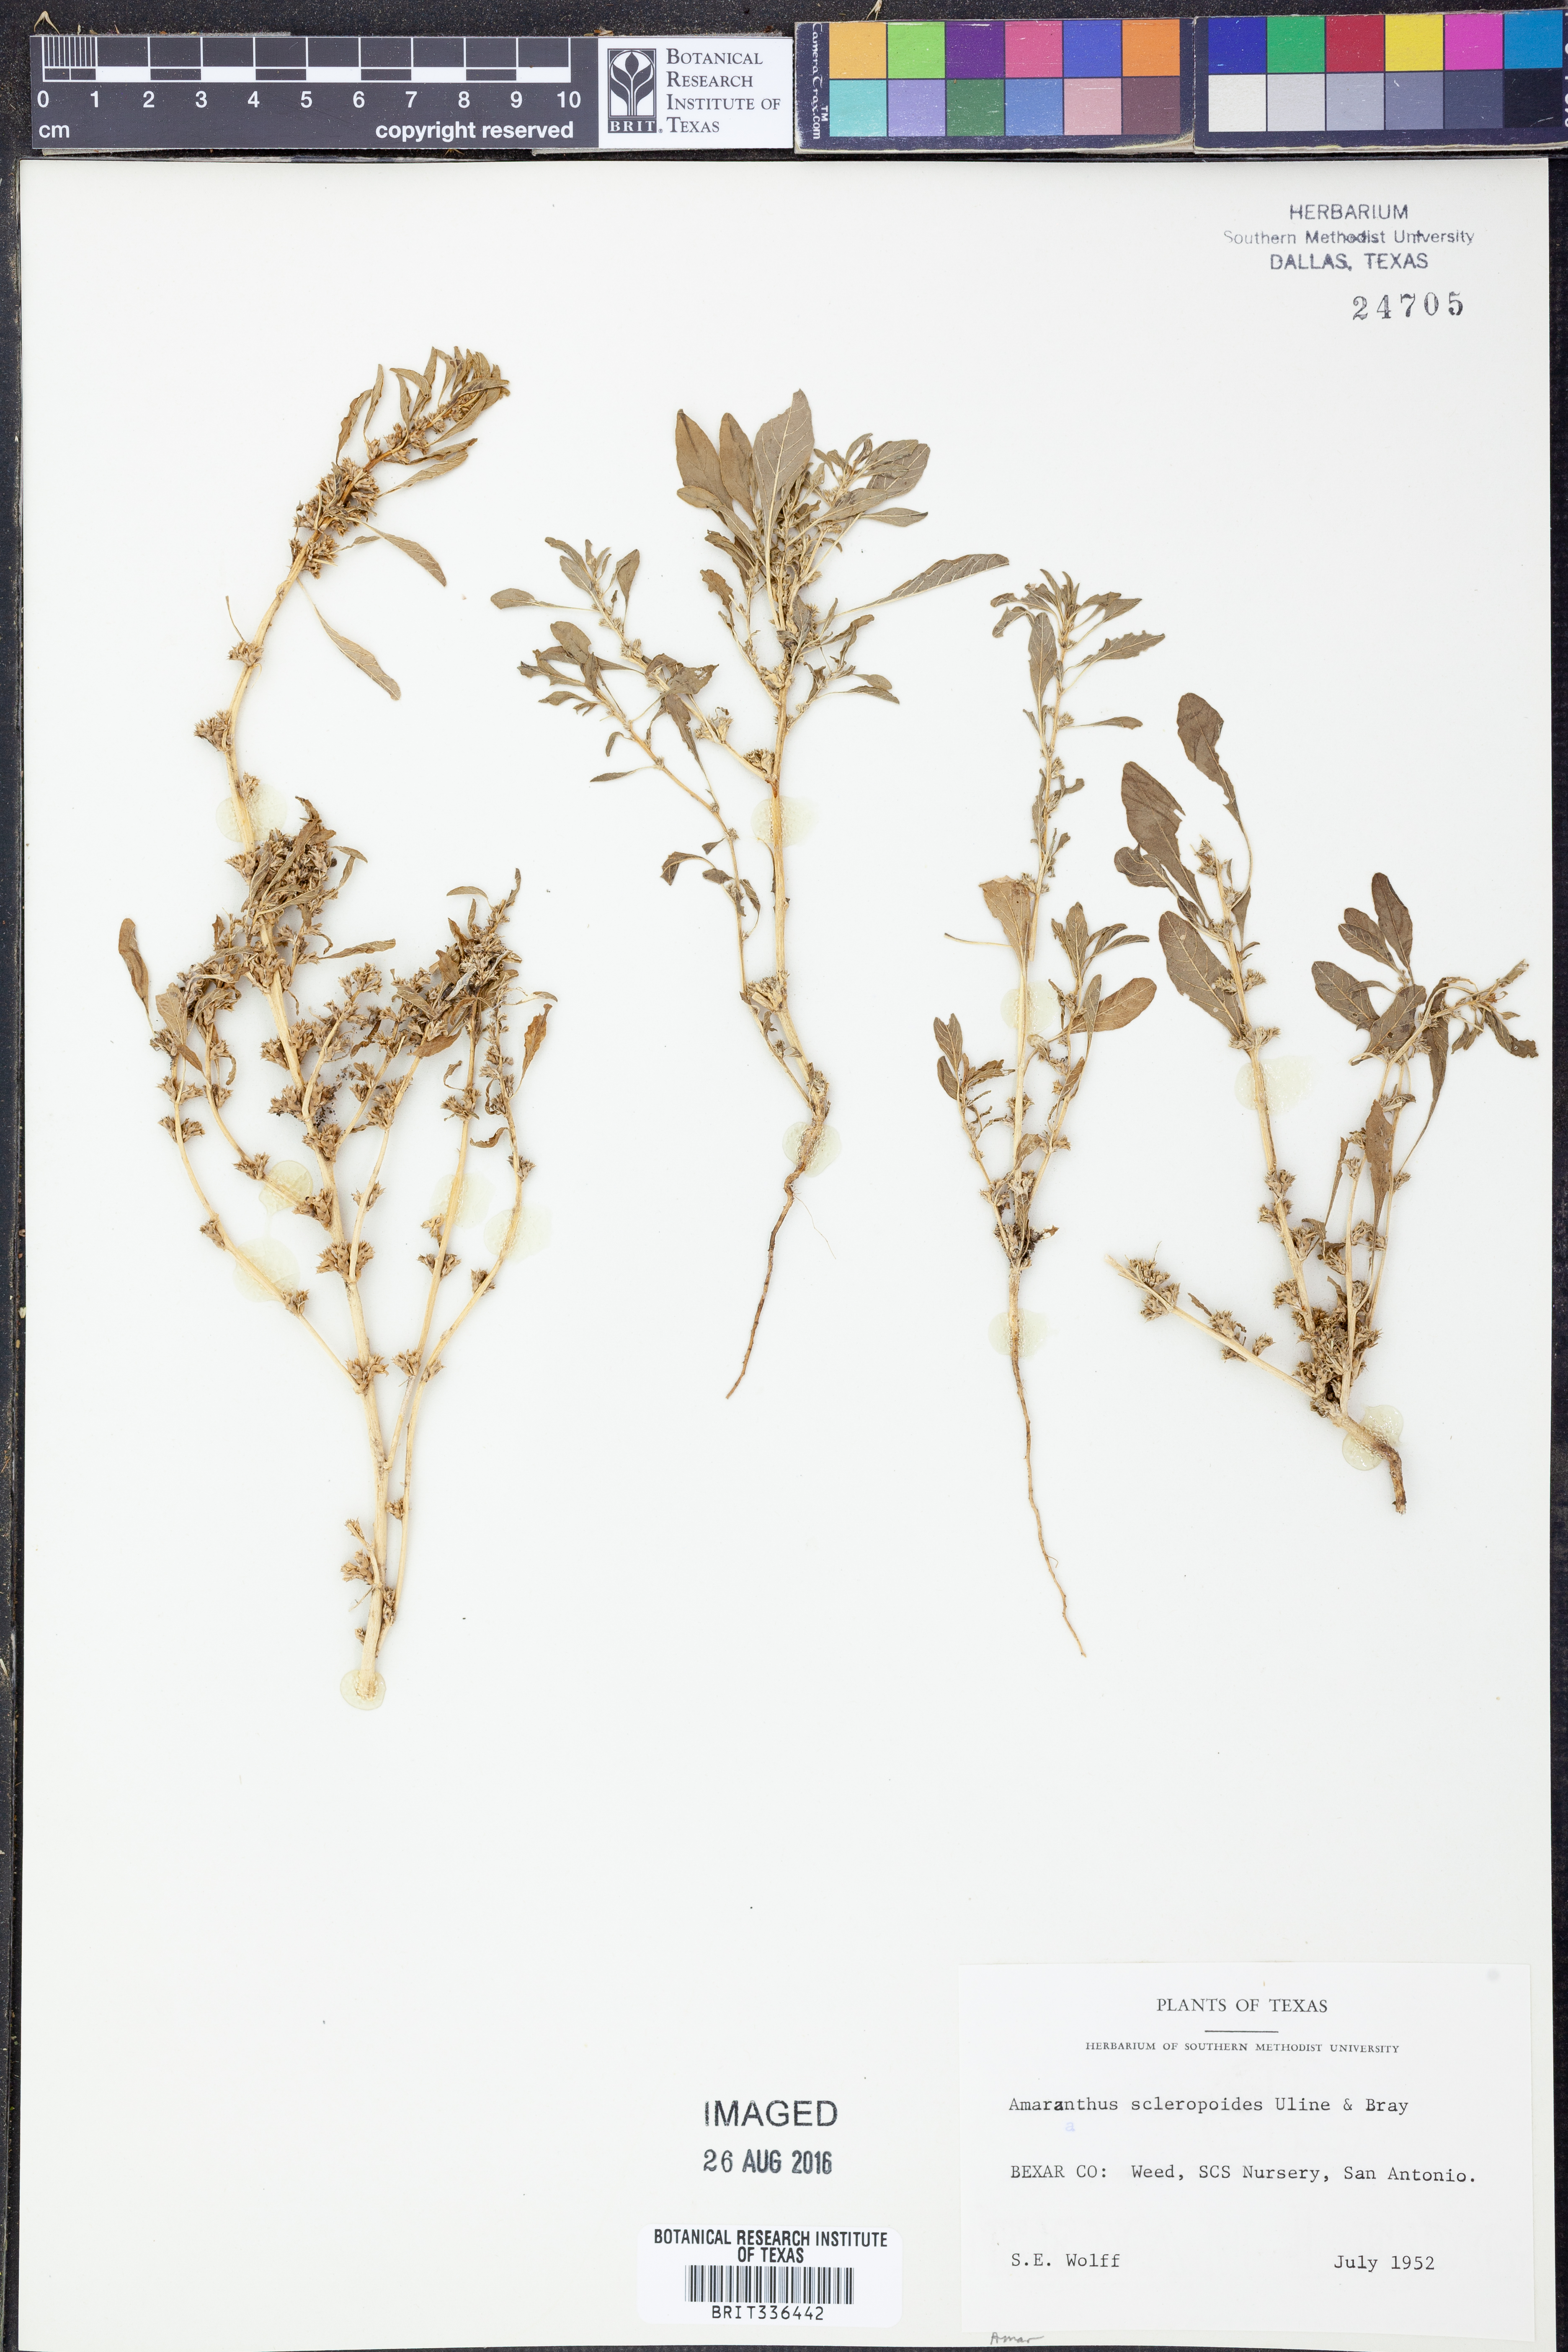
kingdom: Plantae
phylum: Tracheophyta
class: Magnoliopsida
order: Caryophyllales
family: Amaranthaceae
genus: Amaranthus
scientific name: Amaranthus scleropoides
